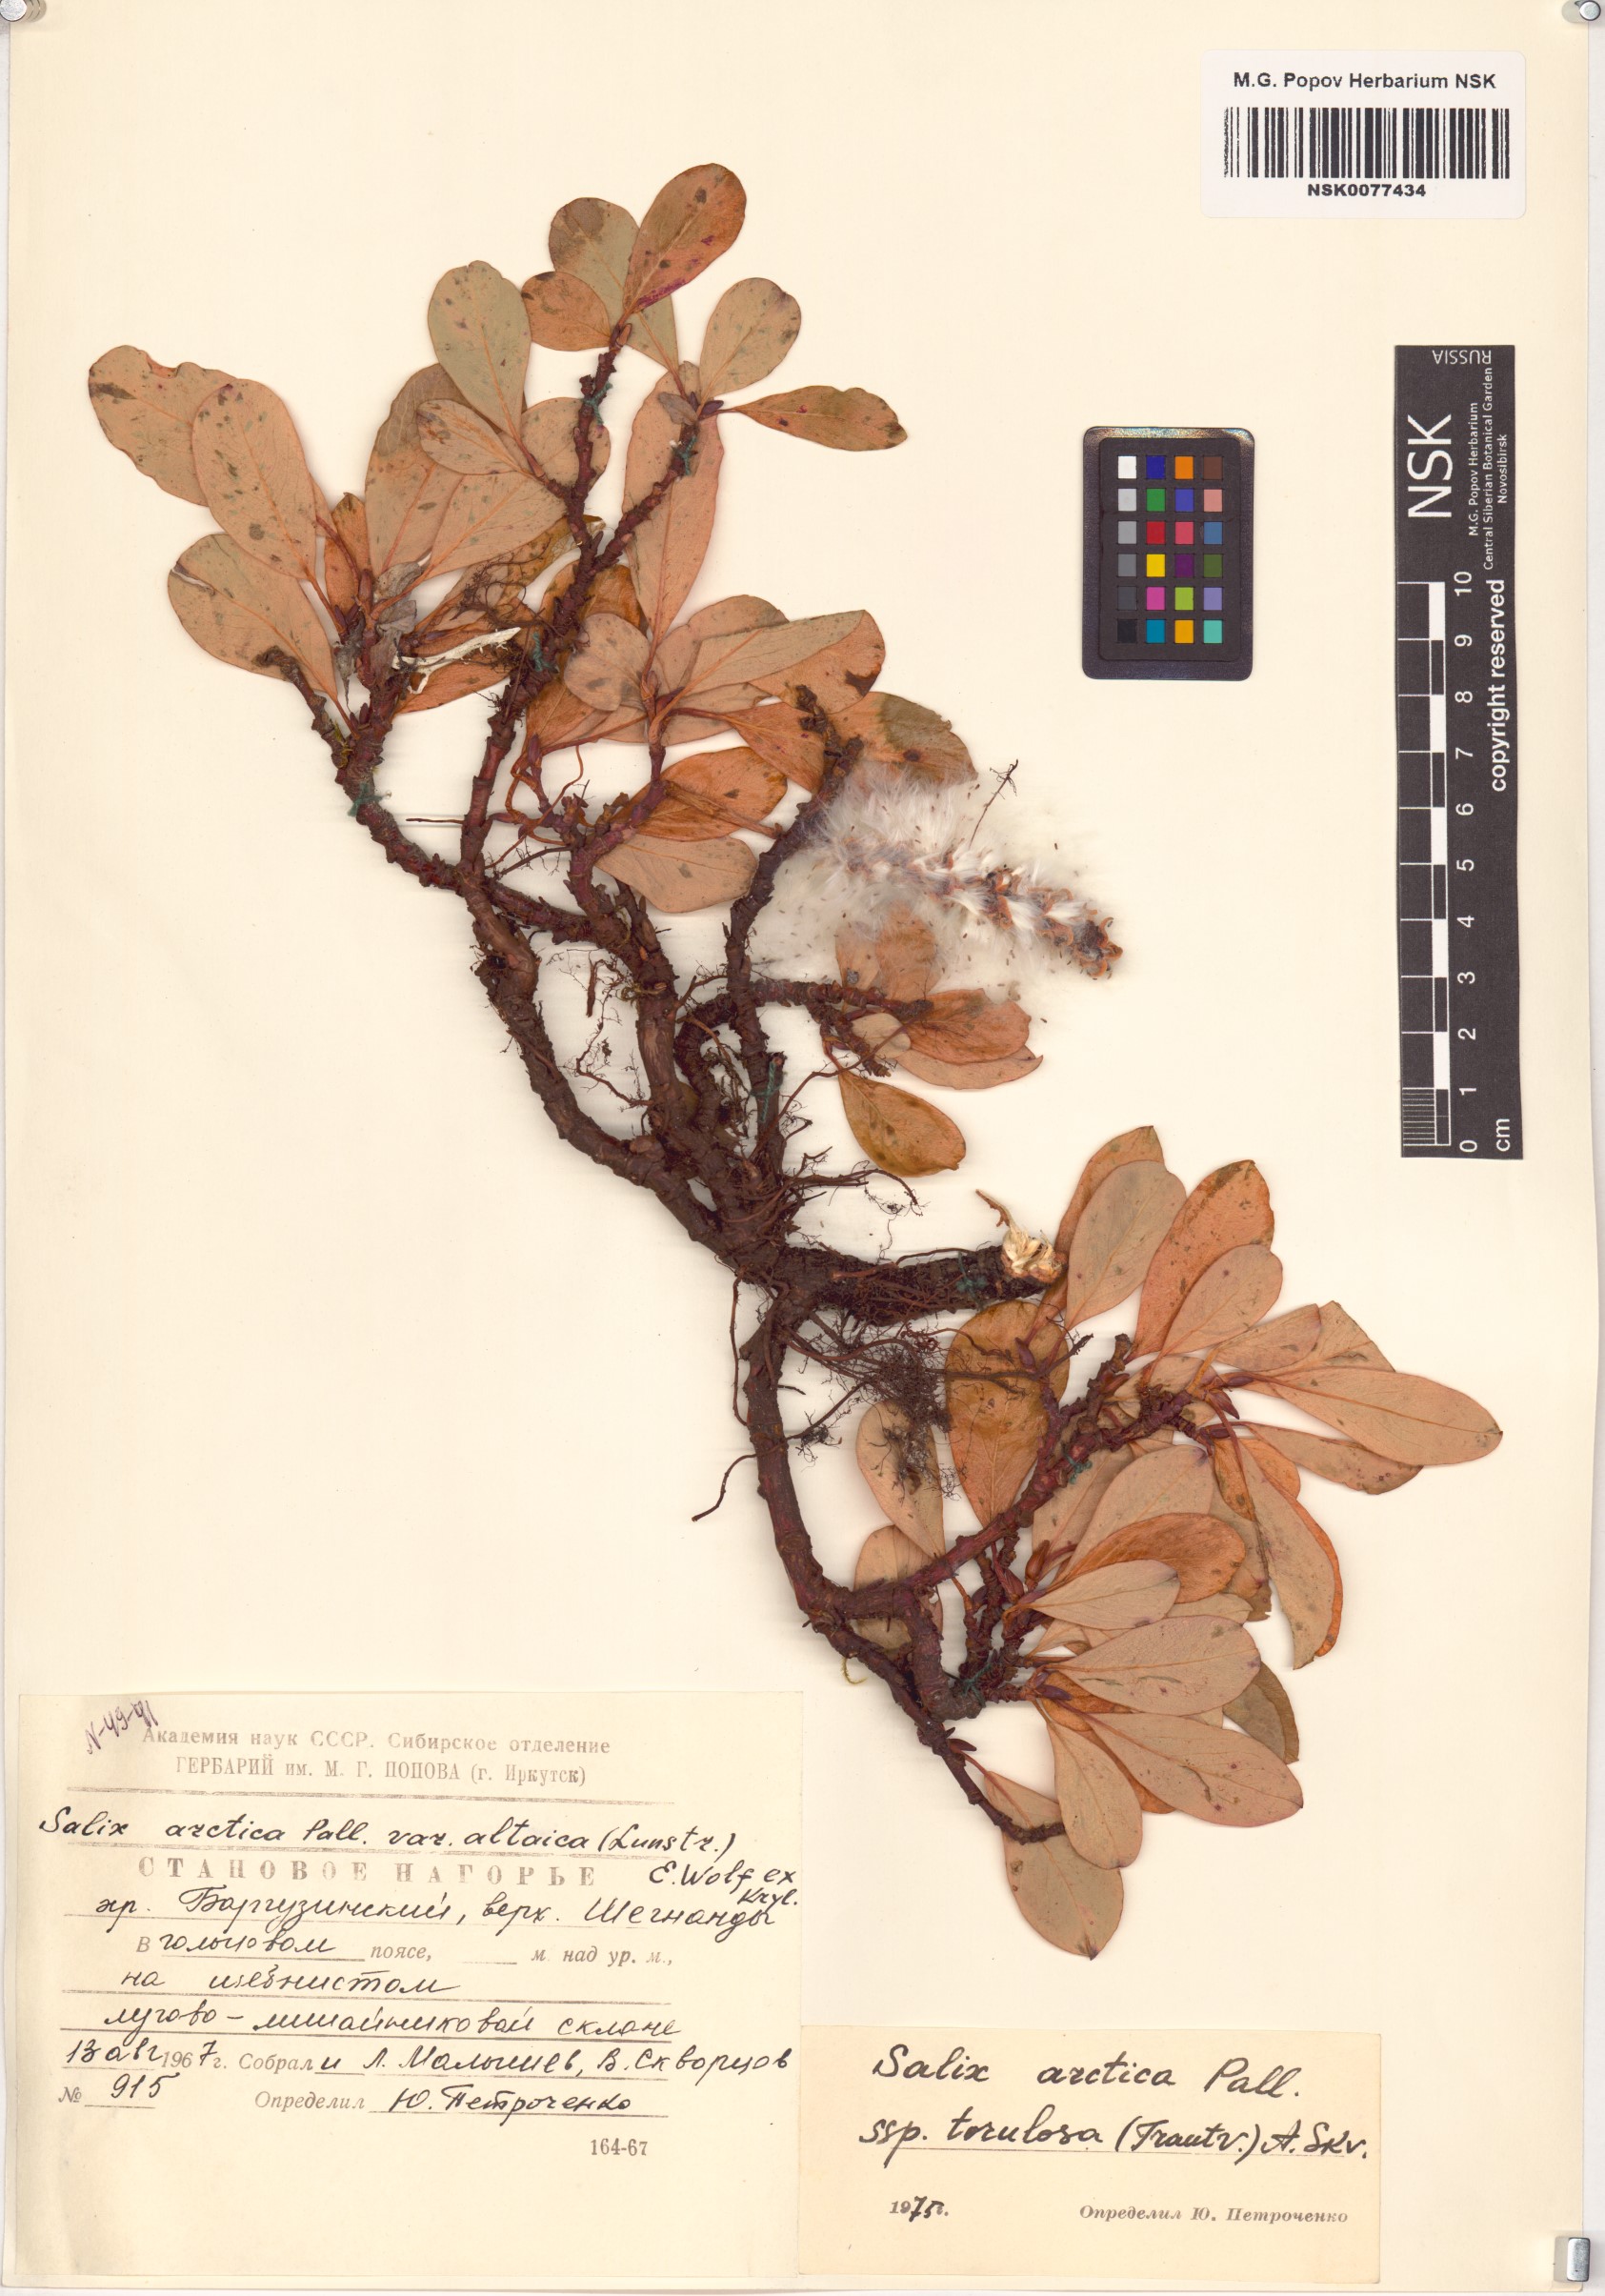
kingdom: Plantae
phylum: Tracheophyta
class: Magnoliopsida
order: Malpighiales
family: Salicaceae
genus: Salix
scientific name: Salix arctica
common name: Arctic willow
